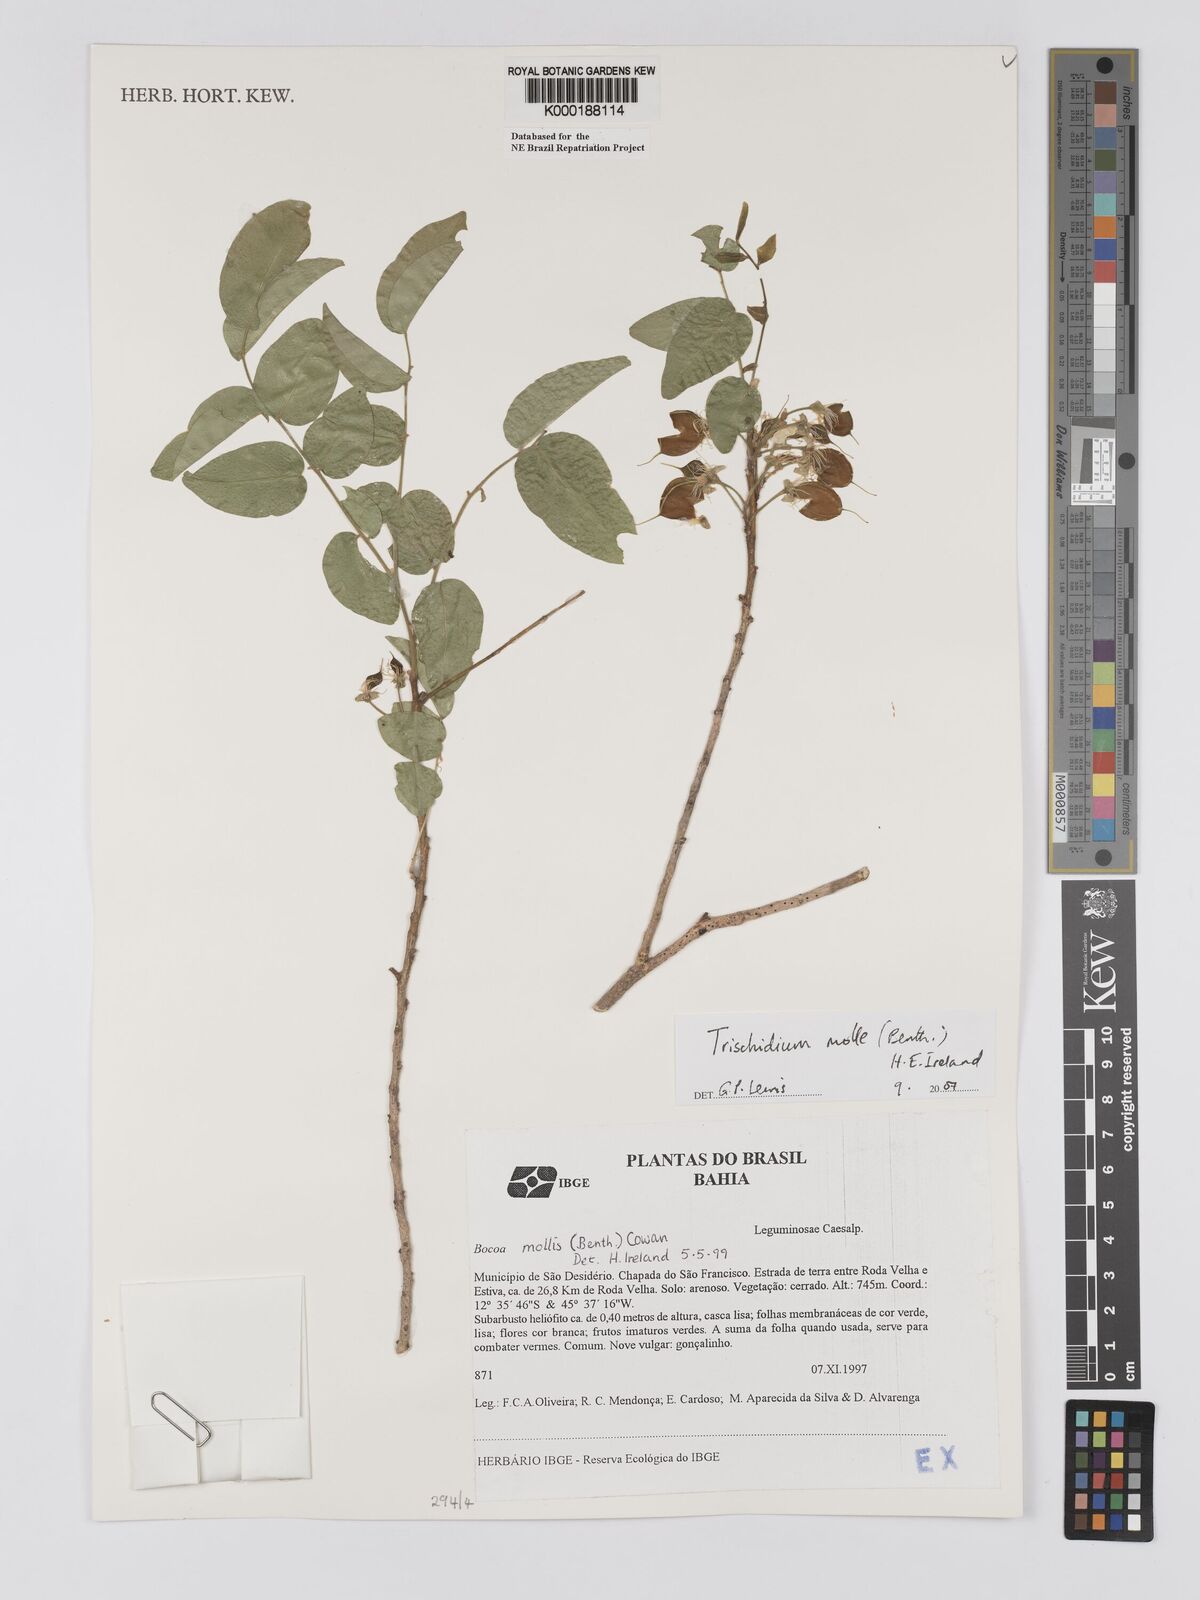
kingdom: Plantae
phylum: Tracheophyta
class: Magnoliopsida
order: Fabales
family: Fabaceae
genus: Trischidium
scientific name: Trischidium
